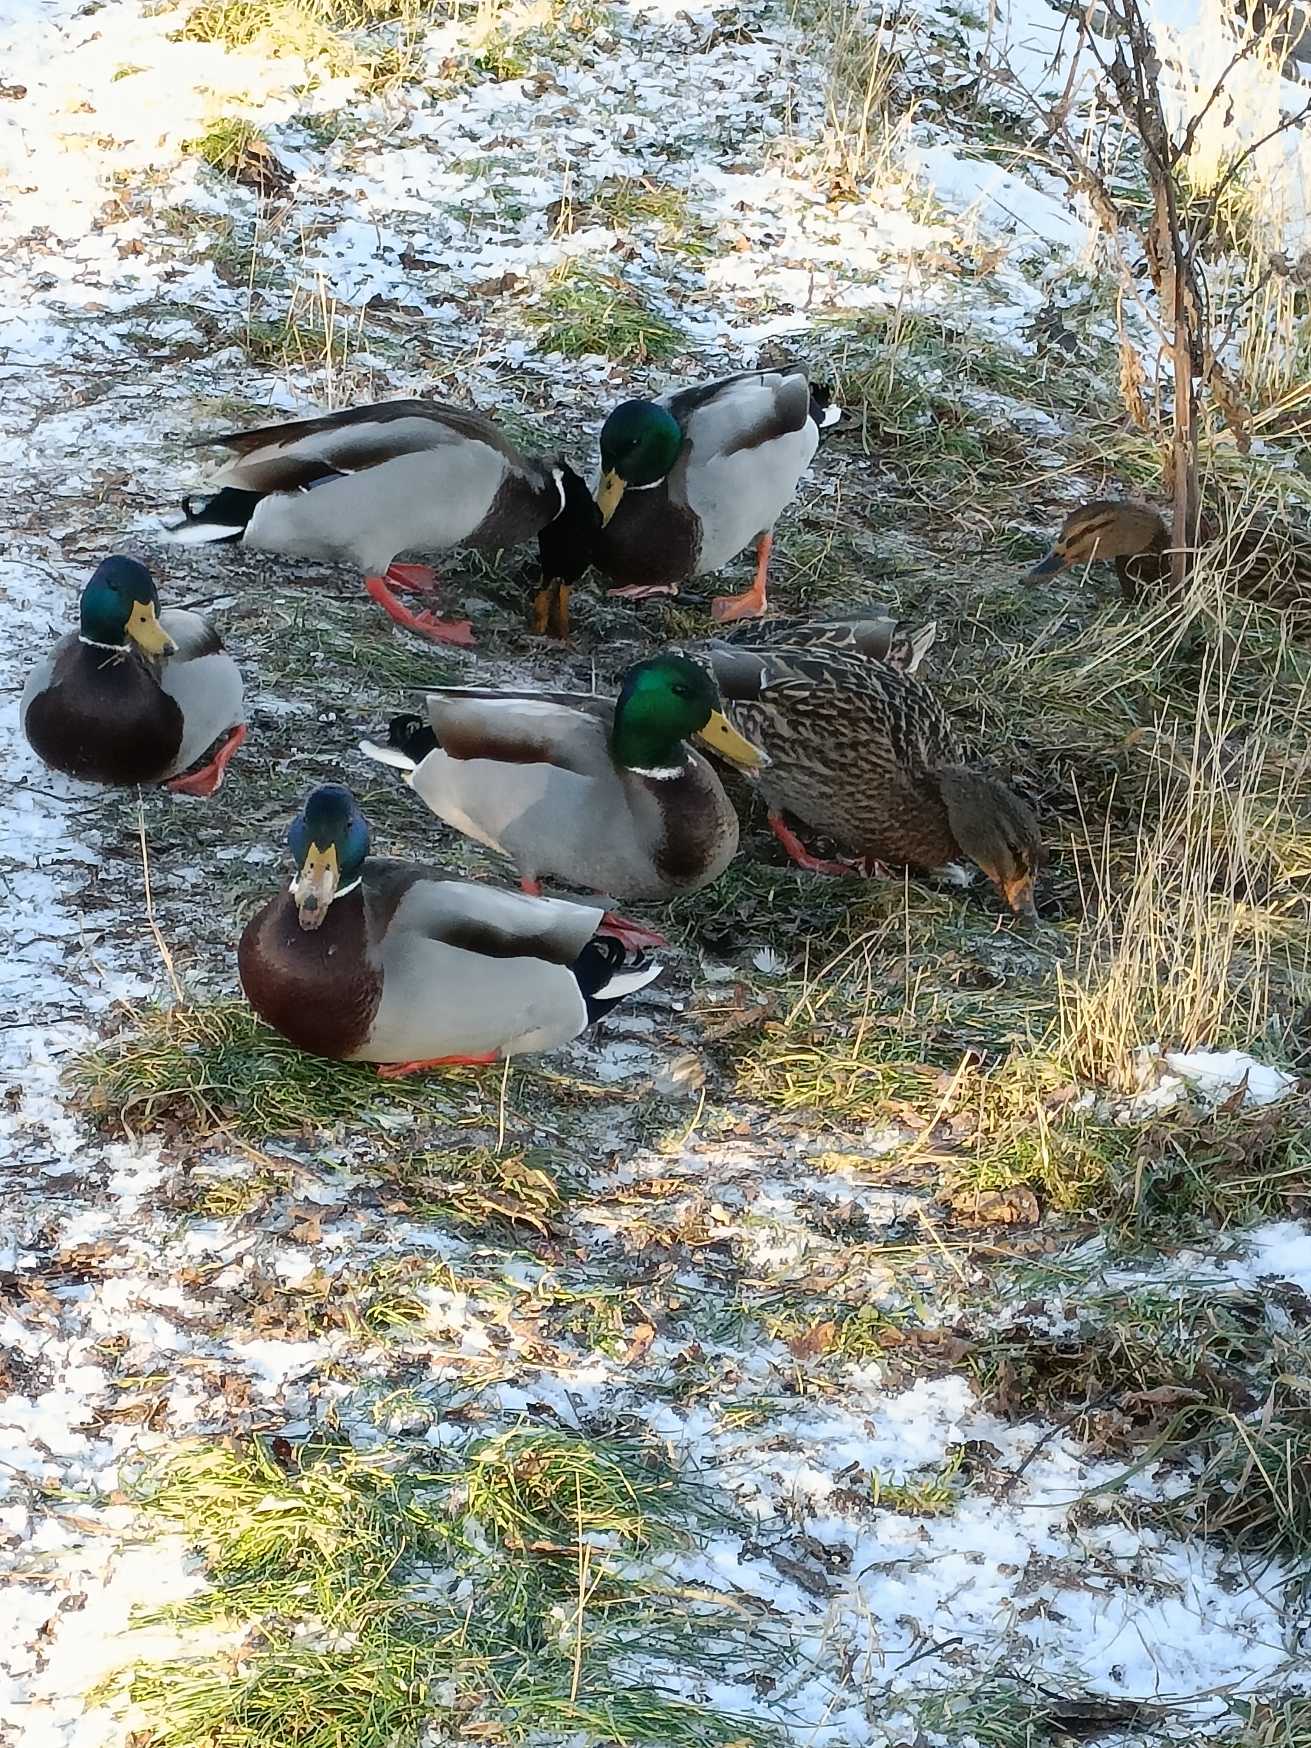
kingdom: Animalia
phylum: Chordata
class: Aves
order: Anseriformes
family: Anatidae
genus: Anas
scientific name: Anas platyrhynchos
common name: Gråand
